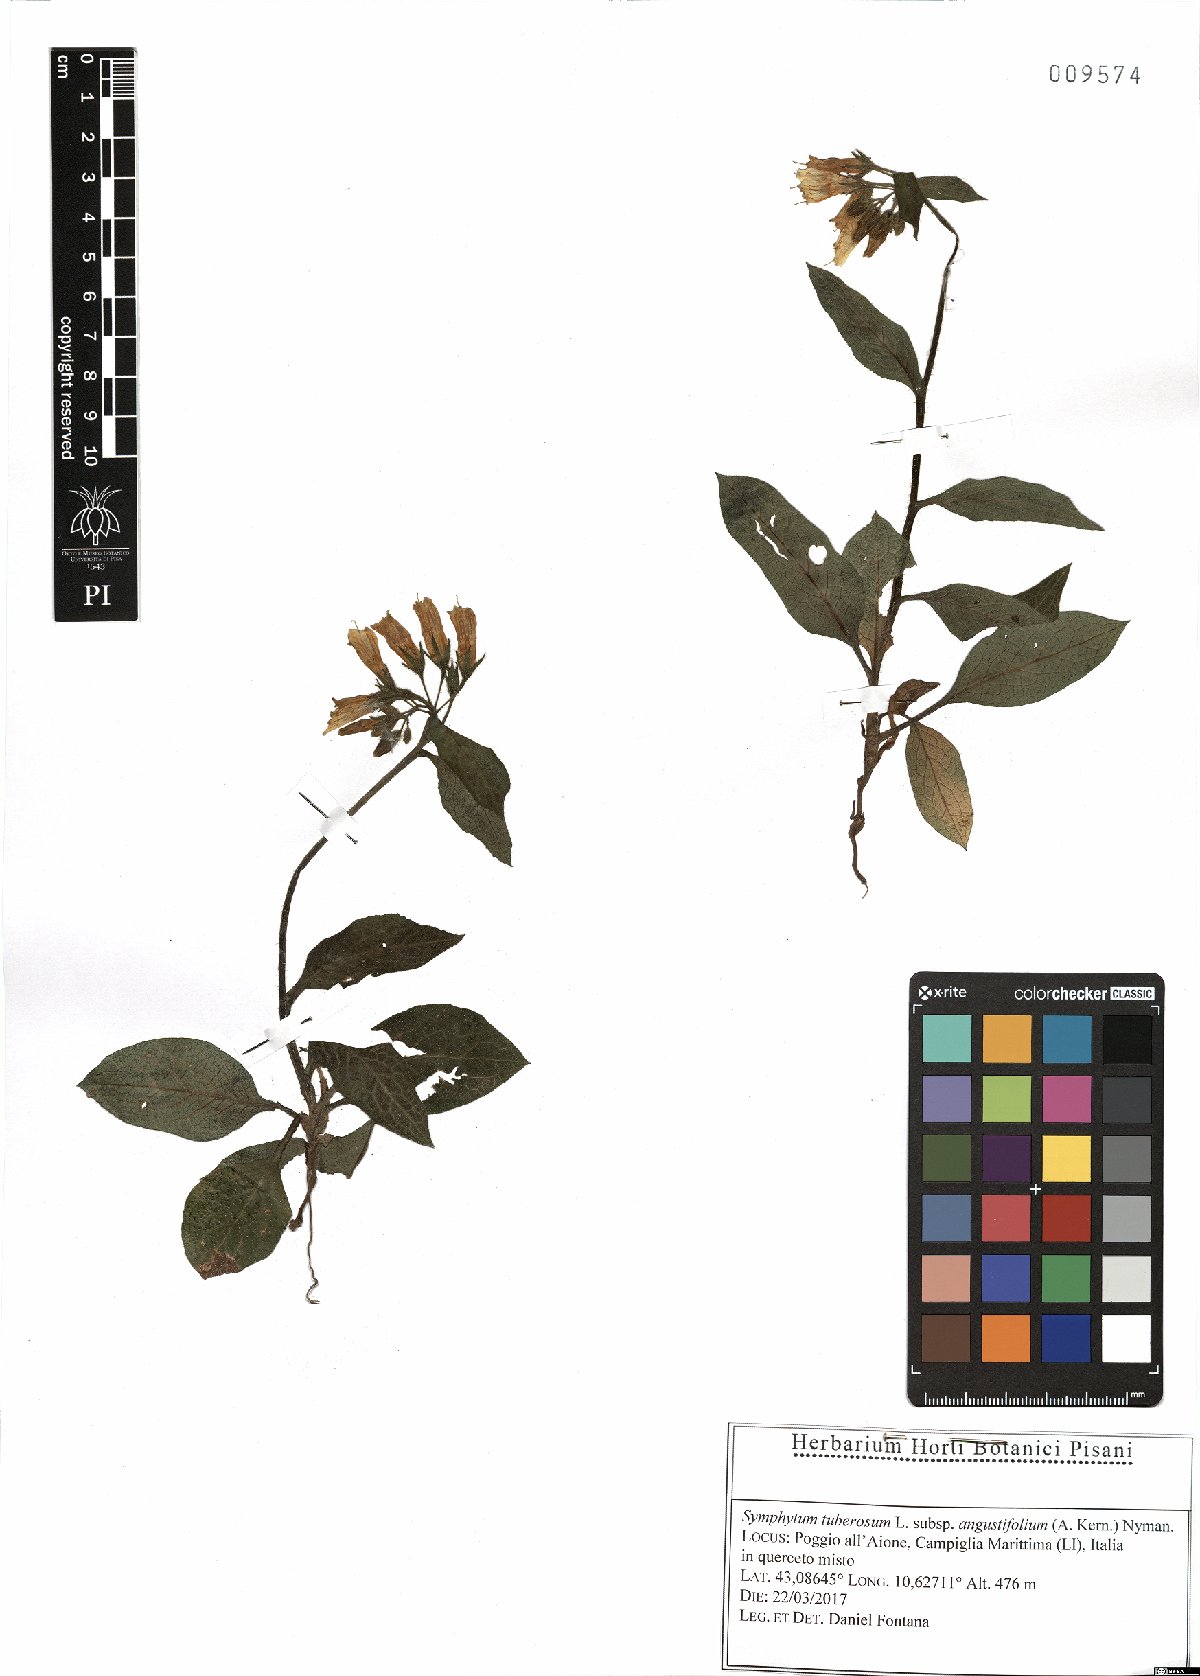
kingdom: Plantae
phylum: Tracheophyta
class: Magnoliopsida
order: Boraginales
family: Boraginaceae
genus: Symphytum
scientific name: Symphytum tuberosum
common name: Tuberous comfrey
